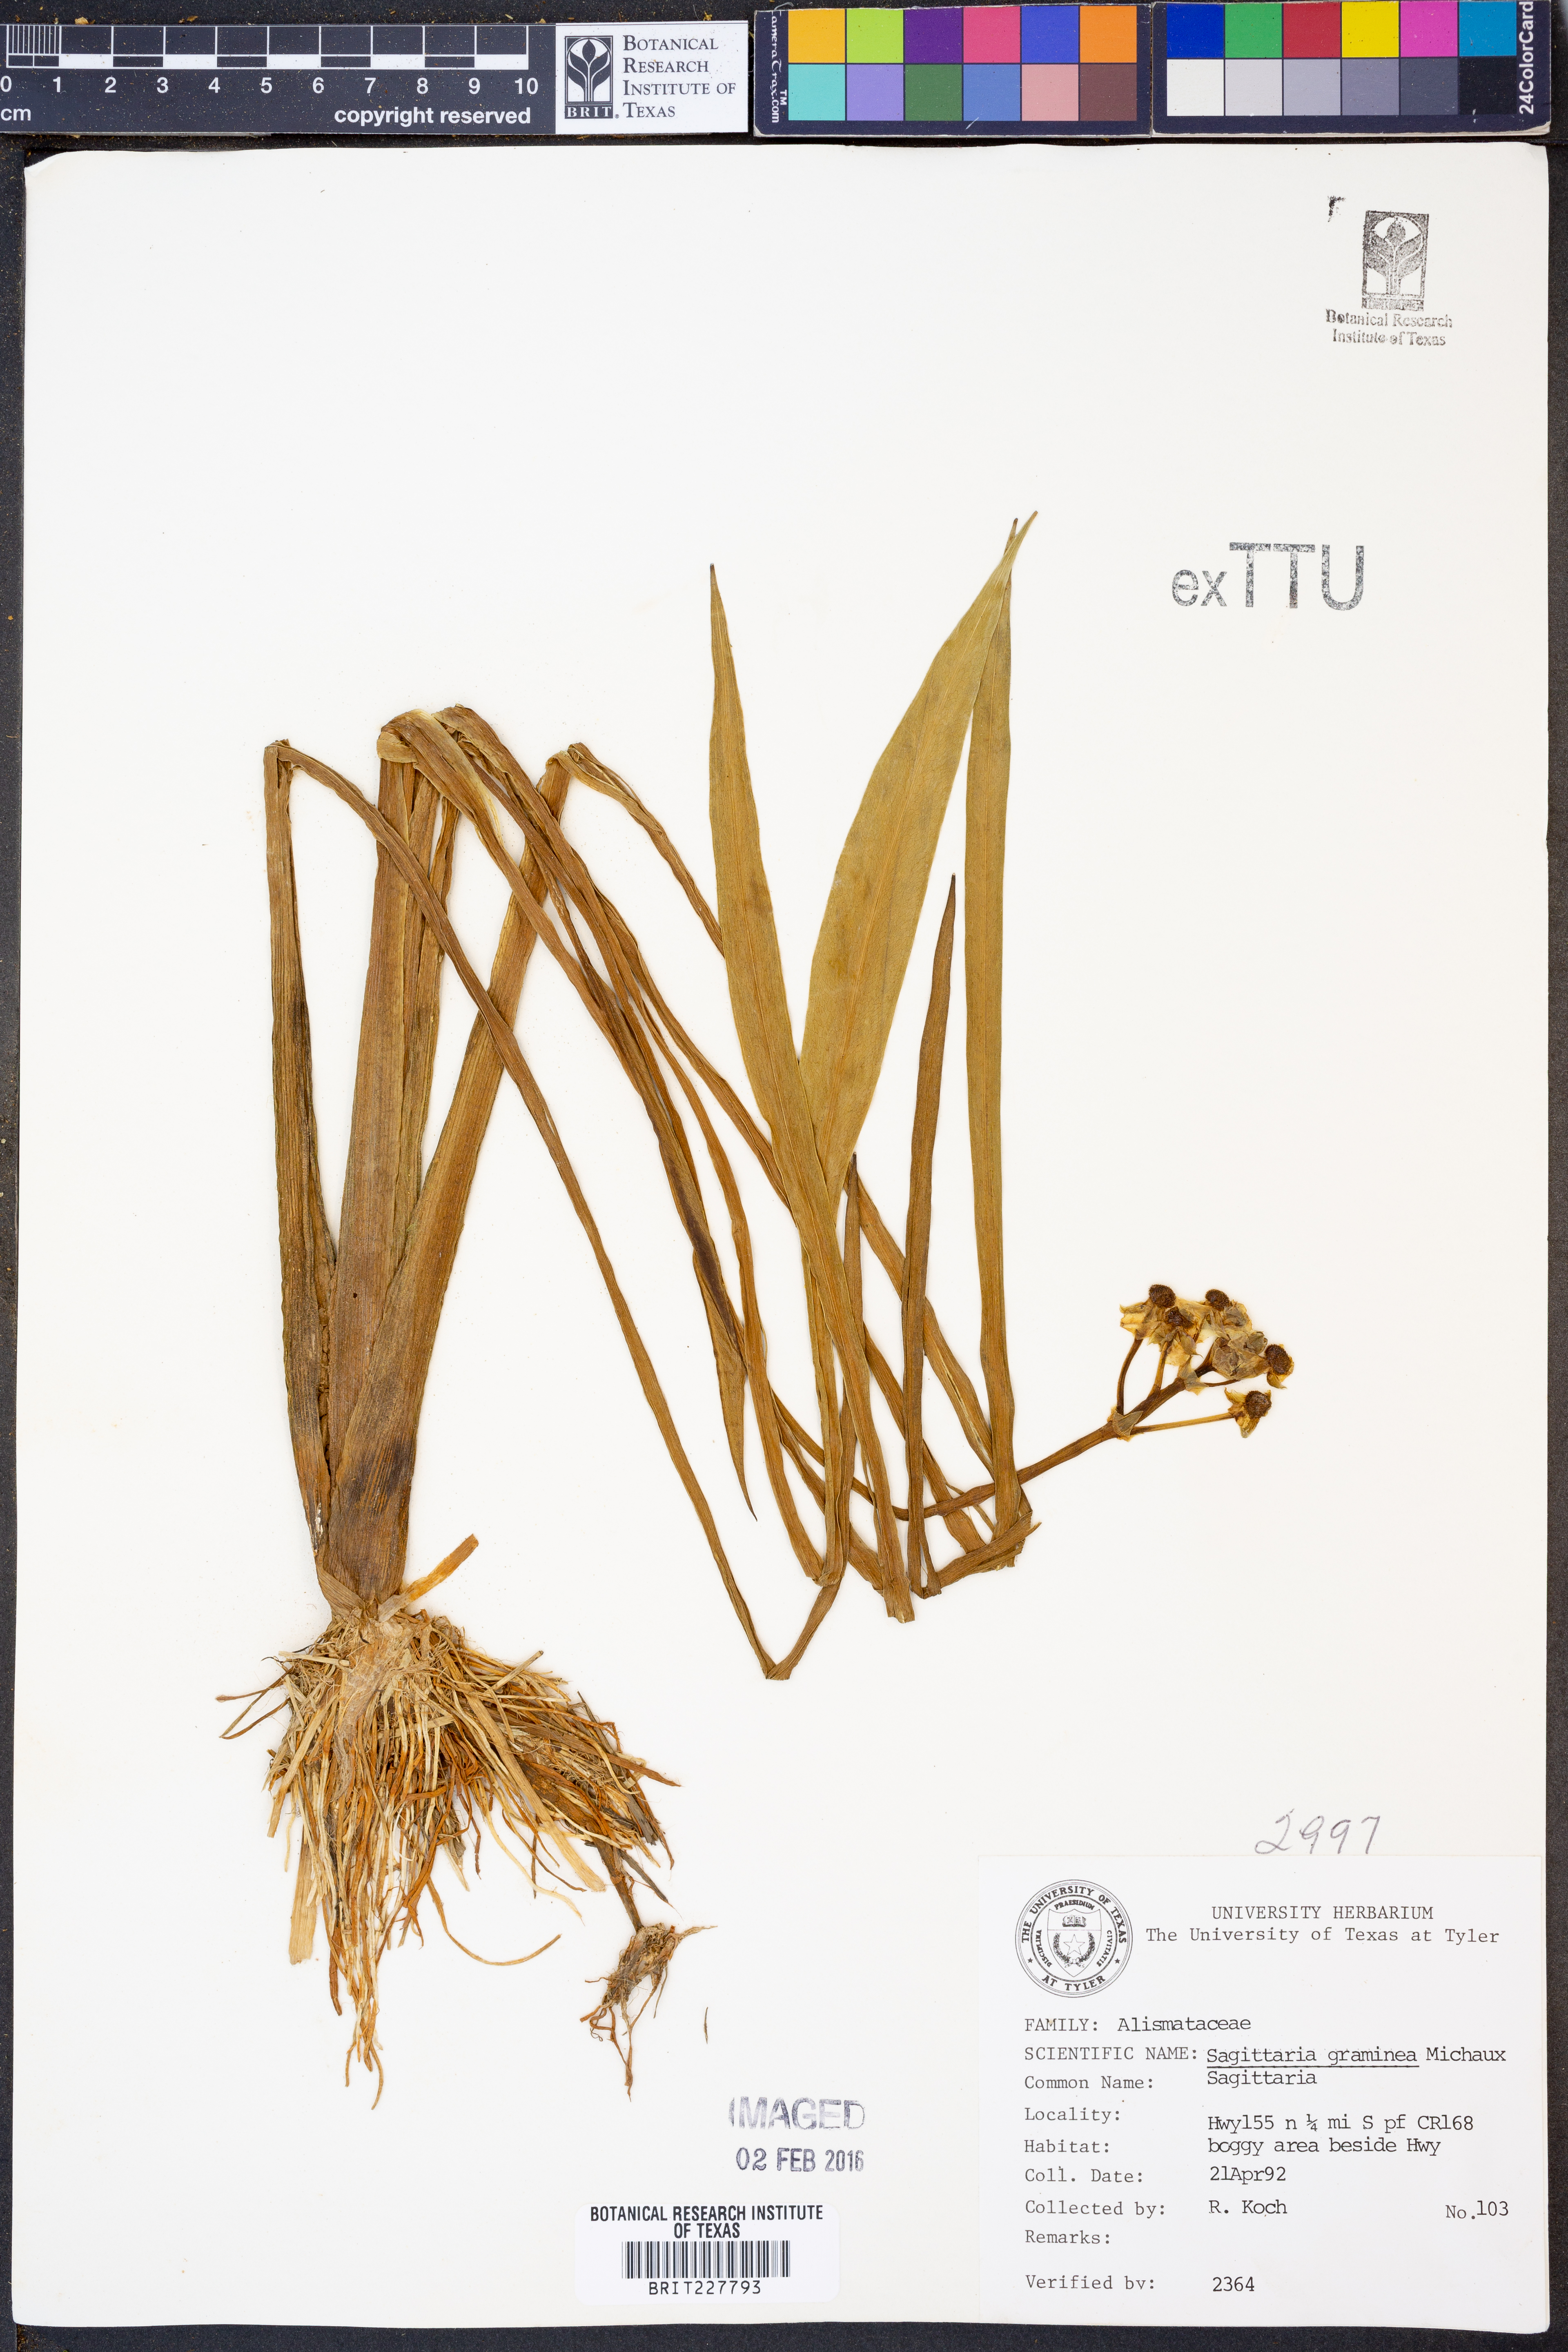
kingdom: Plantae
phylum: Tracheophyta
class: Liliopsida
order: Alismatales
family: Alismataceae
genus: Sagittaria
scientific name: Sagittaria graminea
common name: Grass-leaved arrowhead
